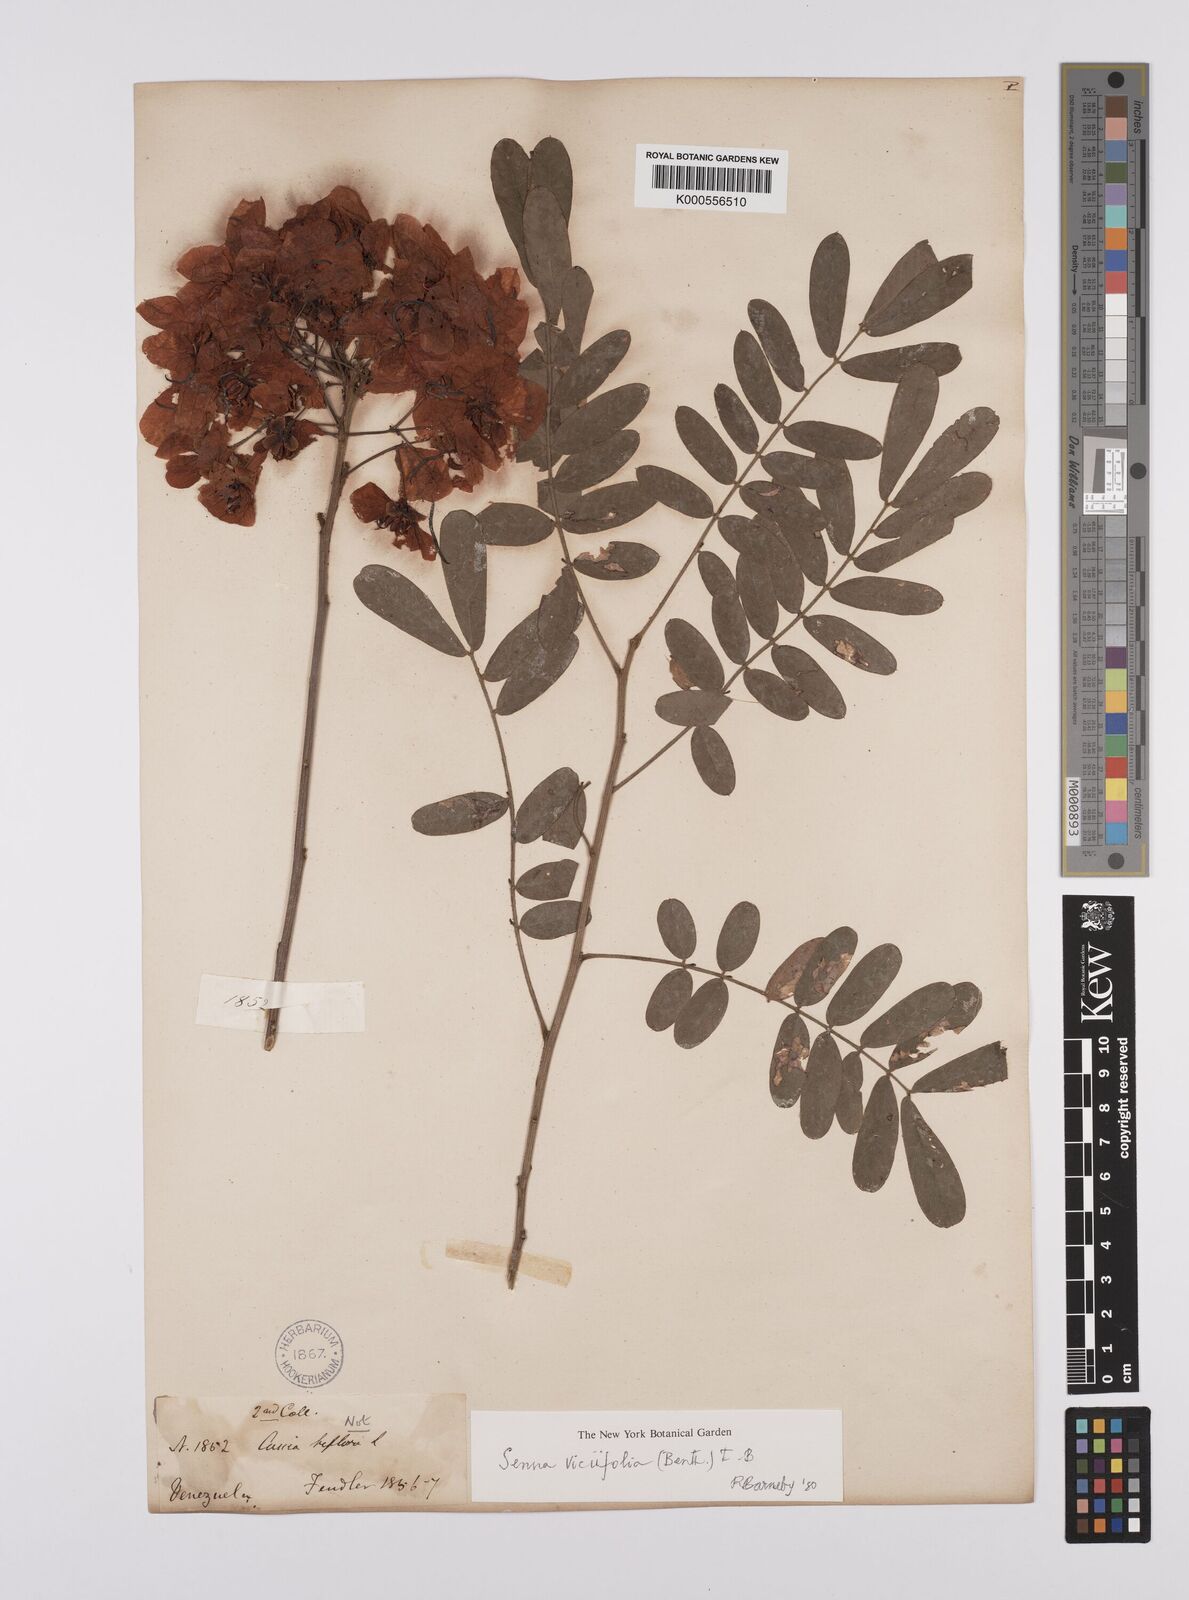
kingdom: Plantae
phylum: Tracheophyta
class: Magnoliopsida
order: Fabales
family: Fabaceae
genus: Senna
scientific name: Senna viciifolia
